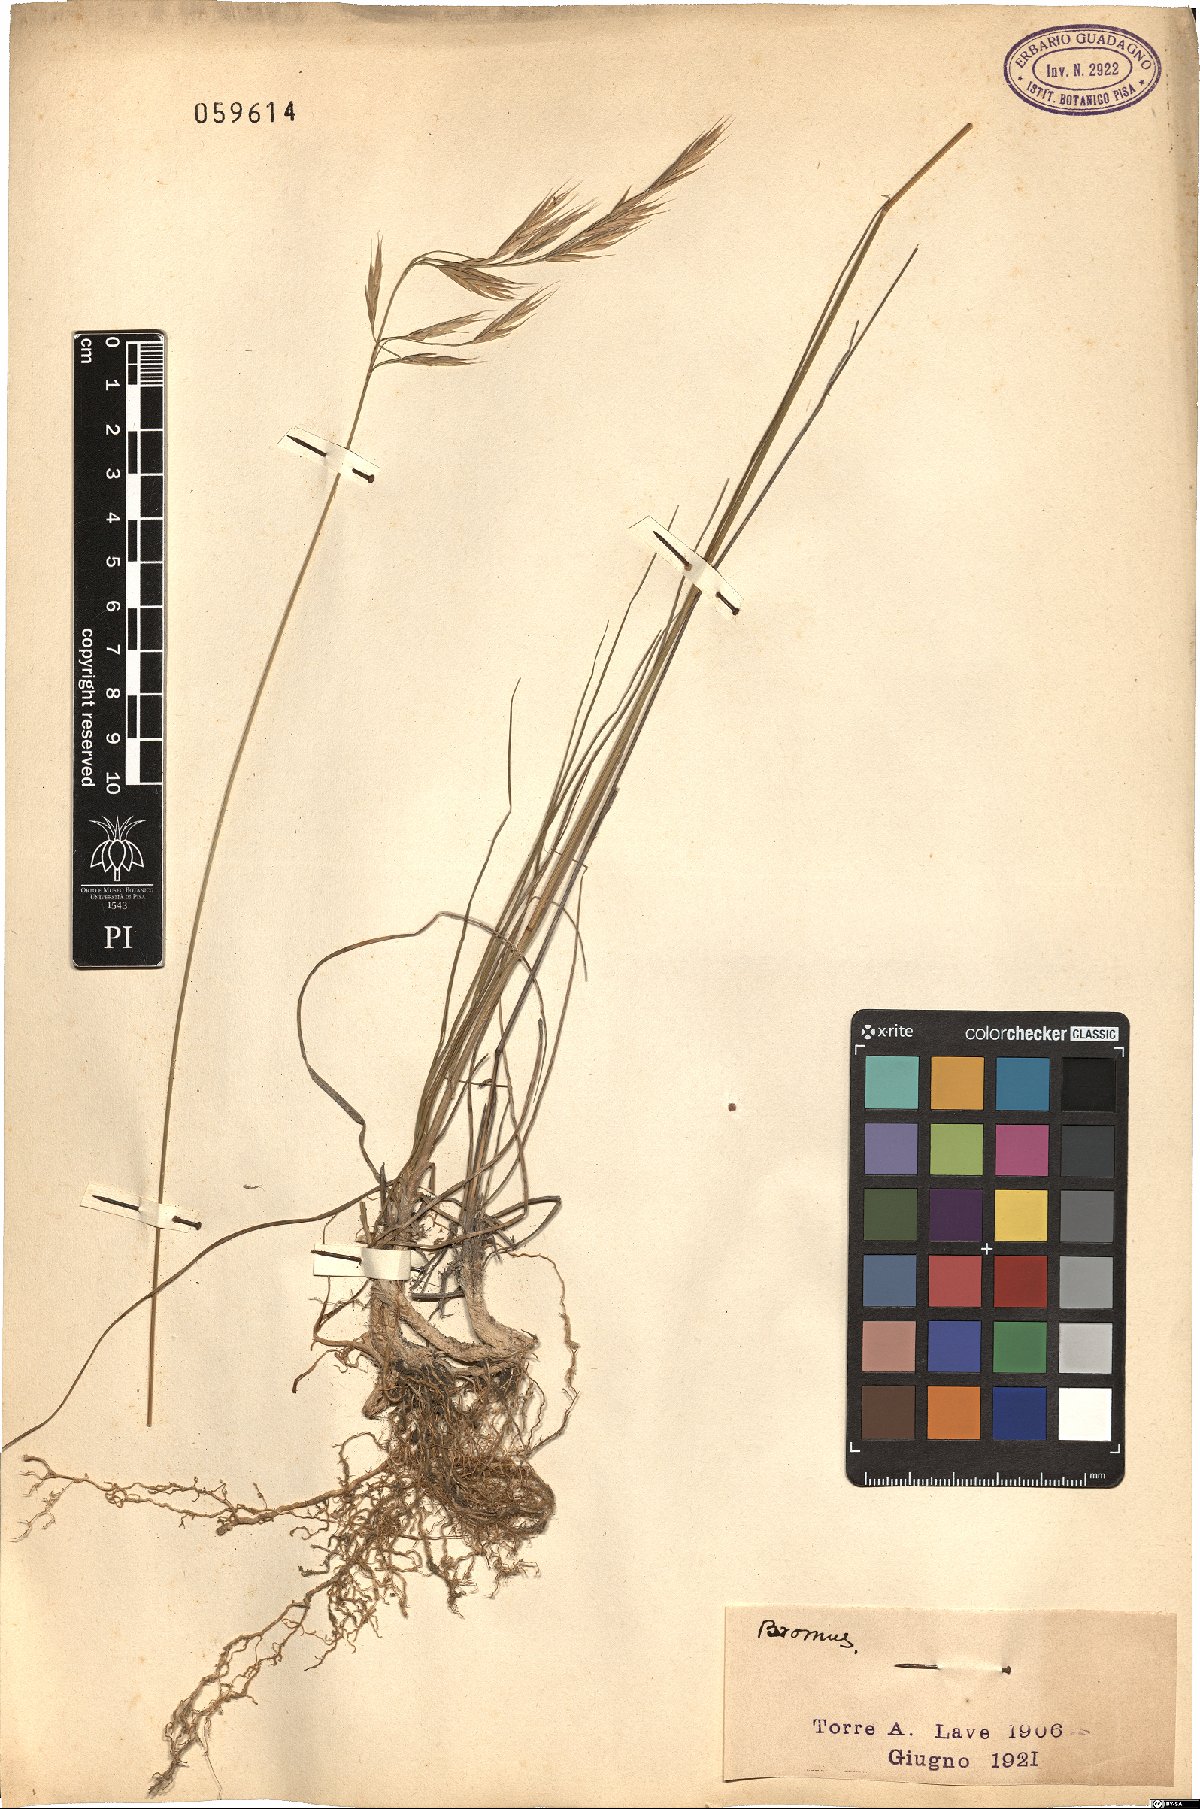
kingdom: Plantae
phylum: Tracheophyta
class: Liliopsida
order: Poales
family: Poaceae
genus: Bromus
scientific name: Bromus
